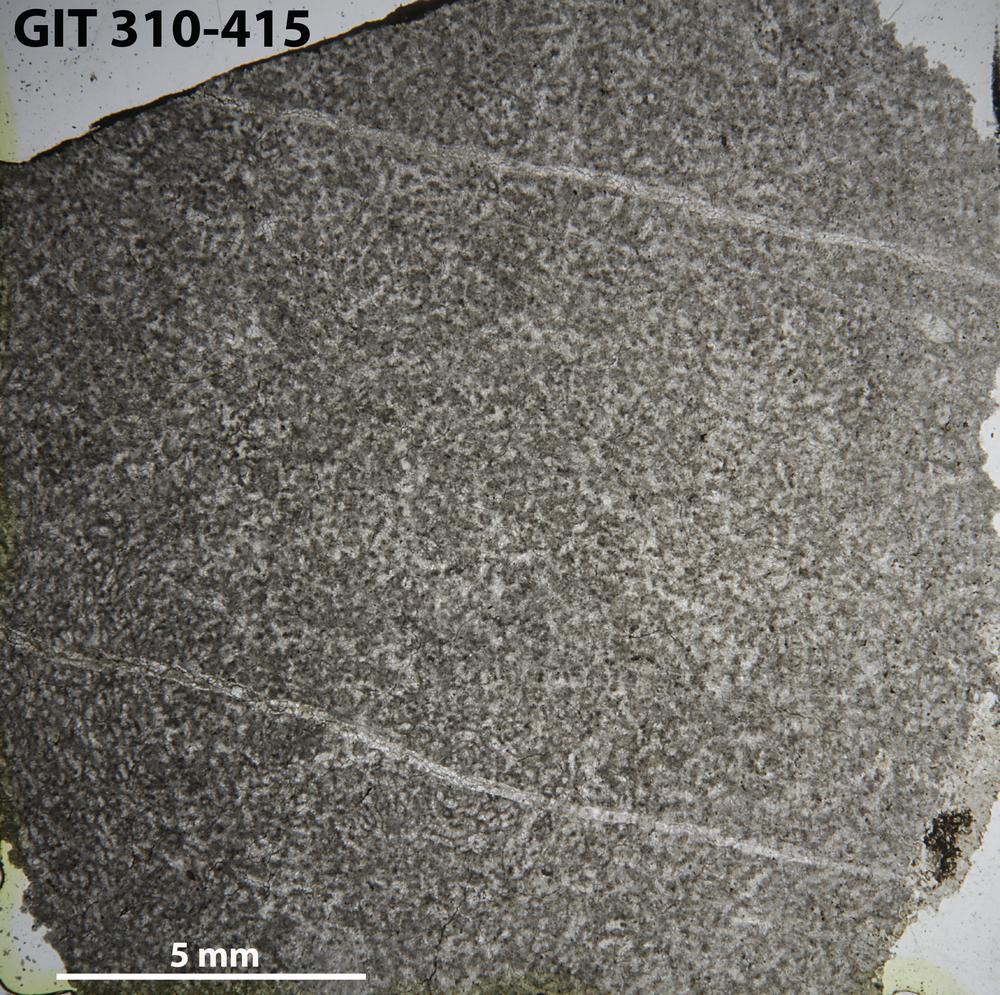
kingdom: Animalia
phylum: Porifera
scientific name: Porifera
